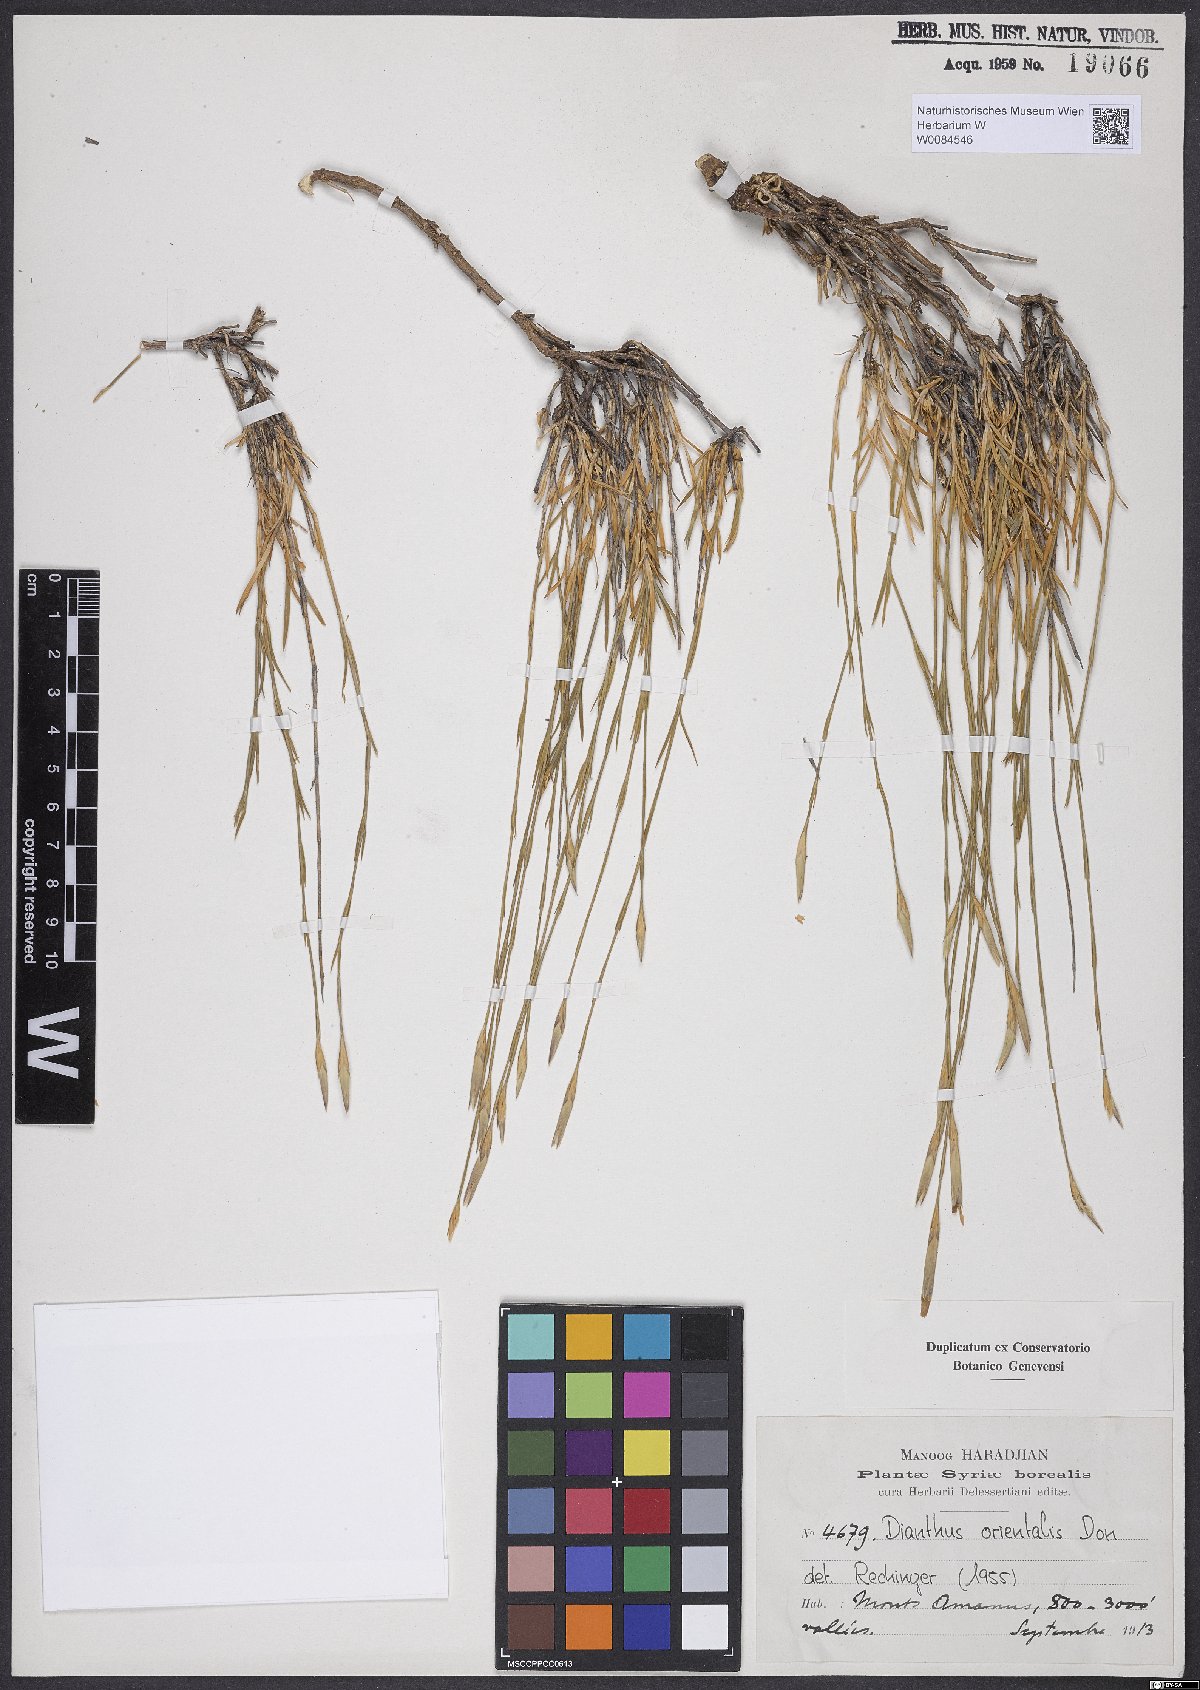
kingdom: Plantae
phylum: Tracheophyta
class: Magnoliopsida
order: Caryophyllales
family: Caryophyllaceae
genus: Dianthus
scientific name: Dianthus orientalis
